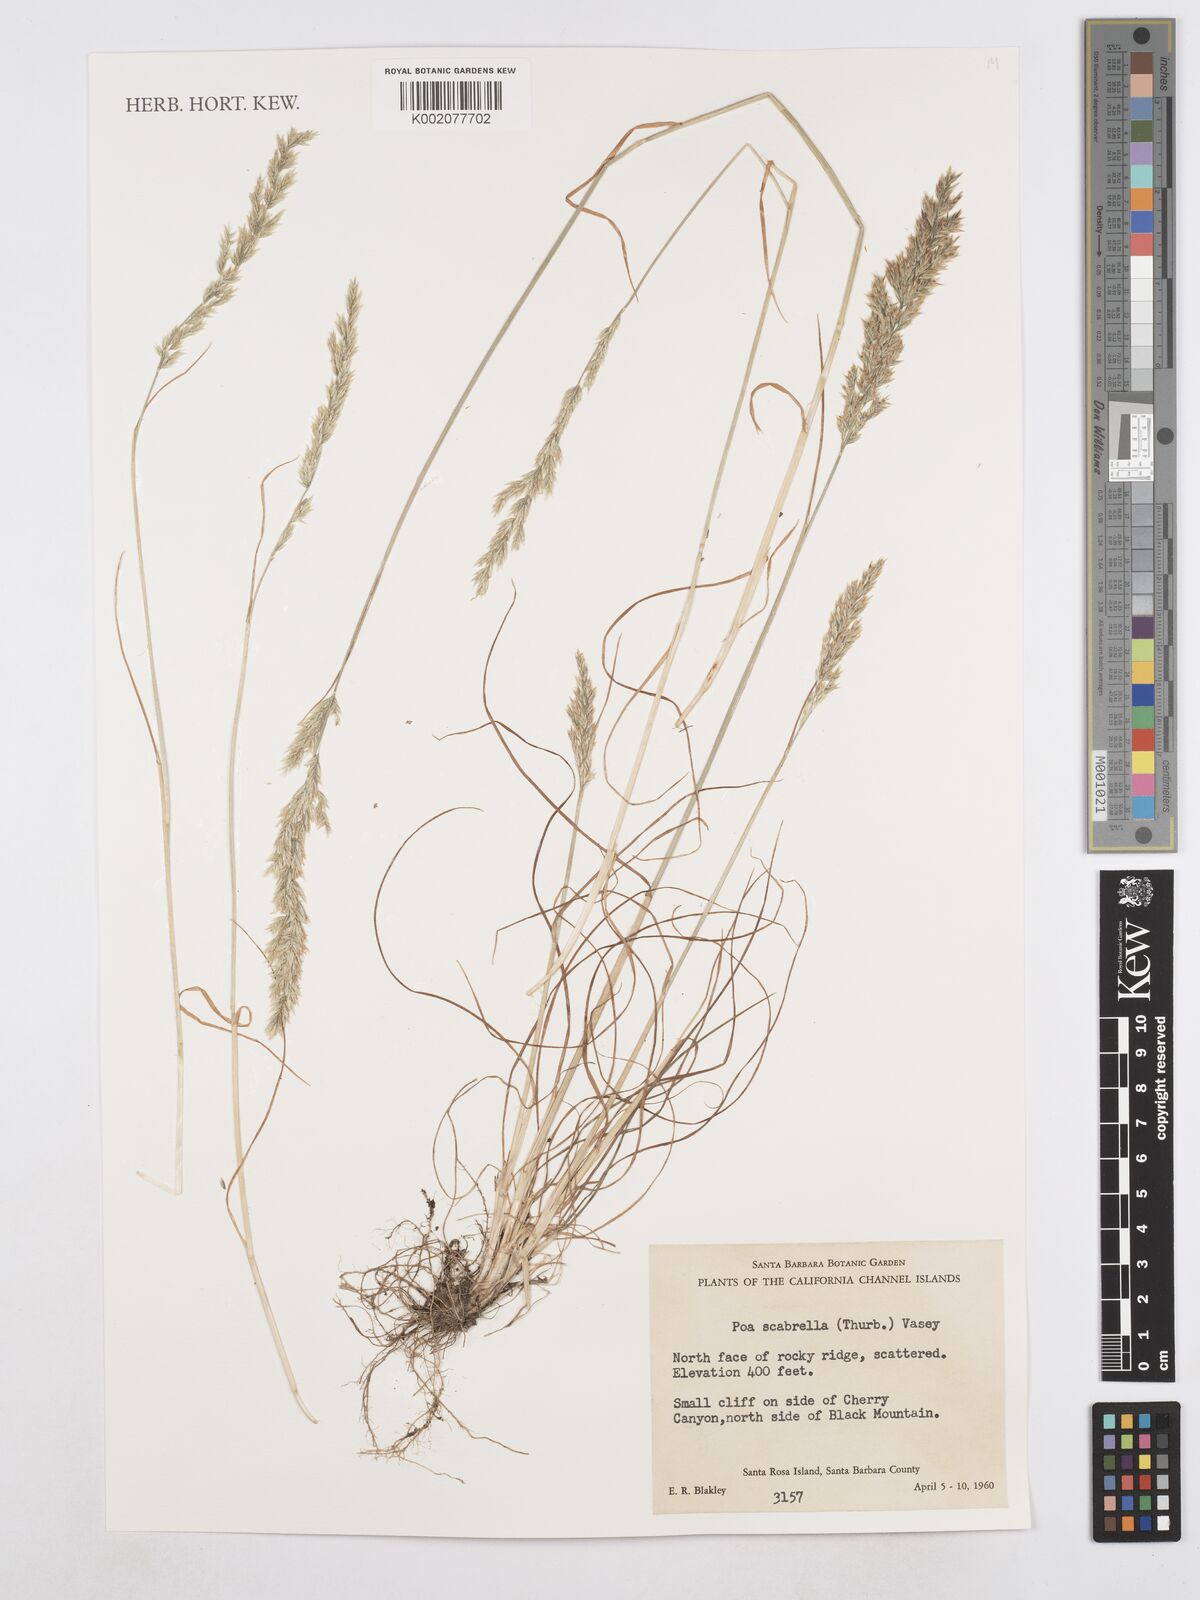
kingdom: Plantae
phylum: Tracheophyta
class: Liliopsida
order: Poales
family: Poaceae
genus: Poa
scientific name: Poa secunda
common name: Sandberg bluegrass
